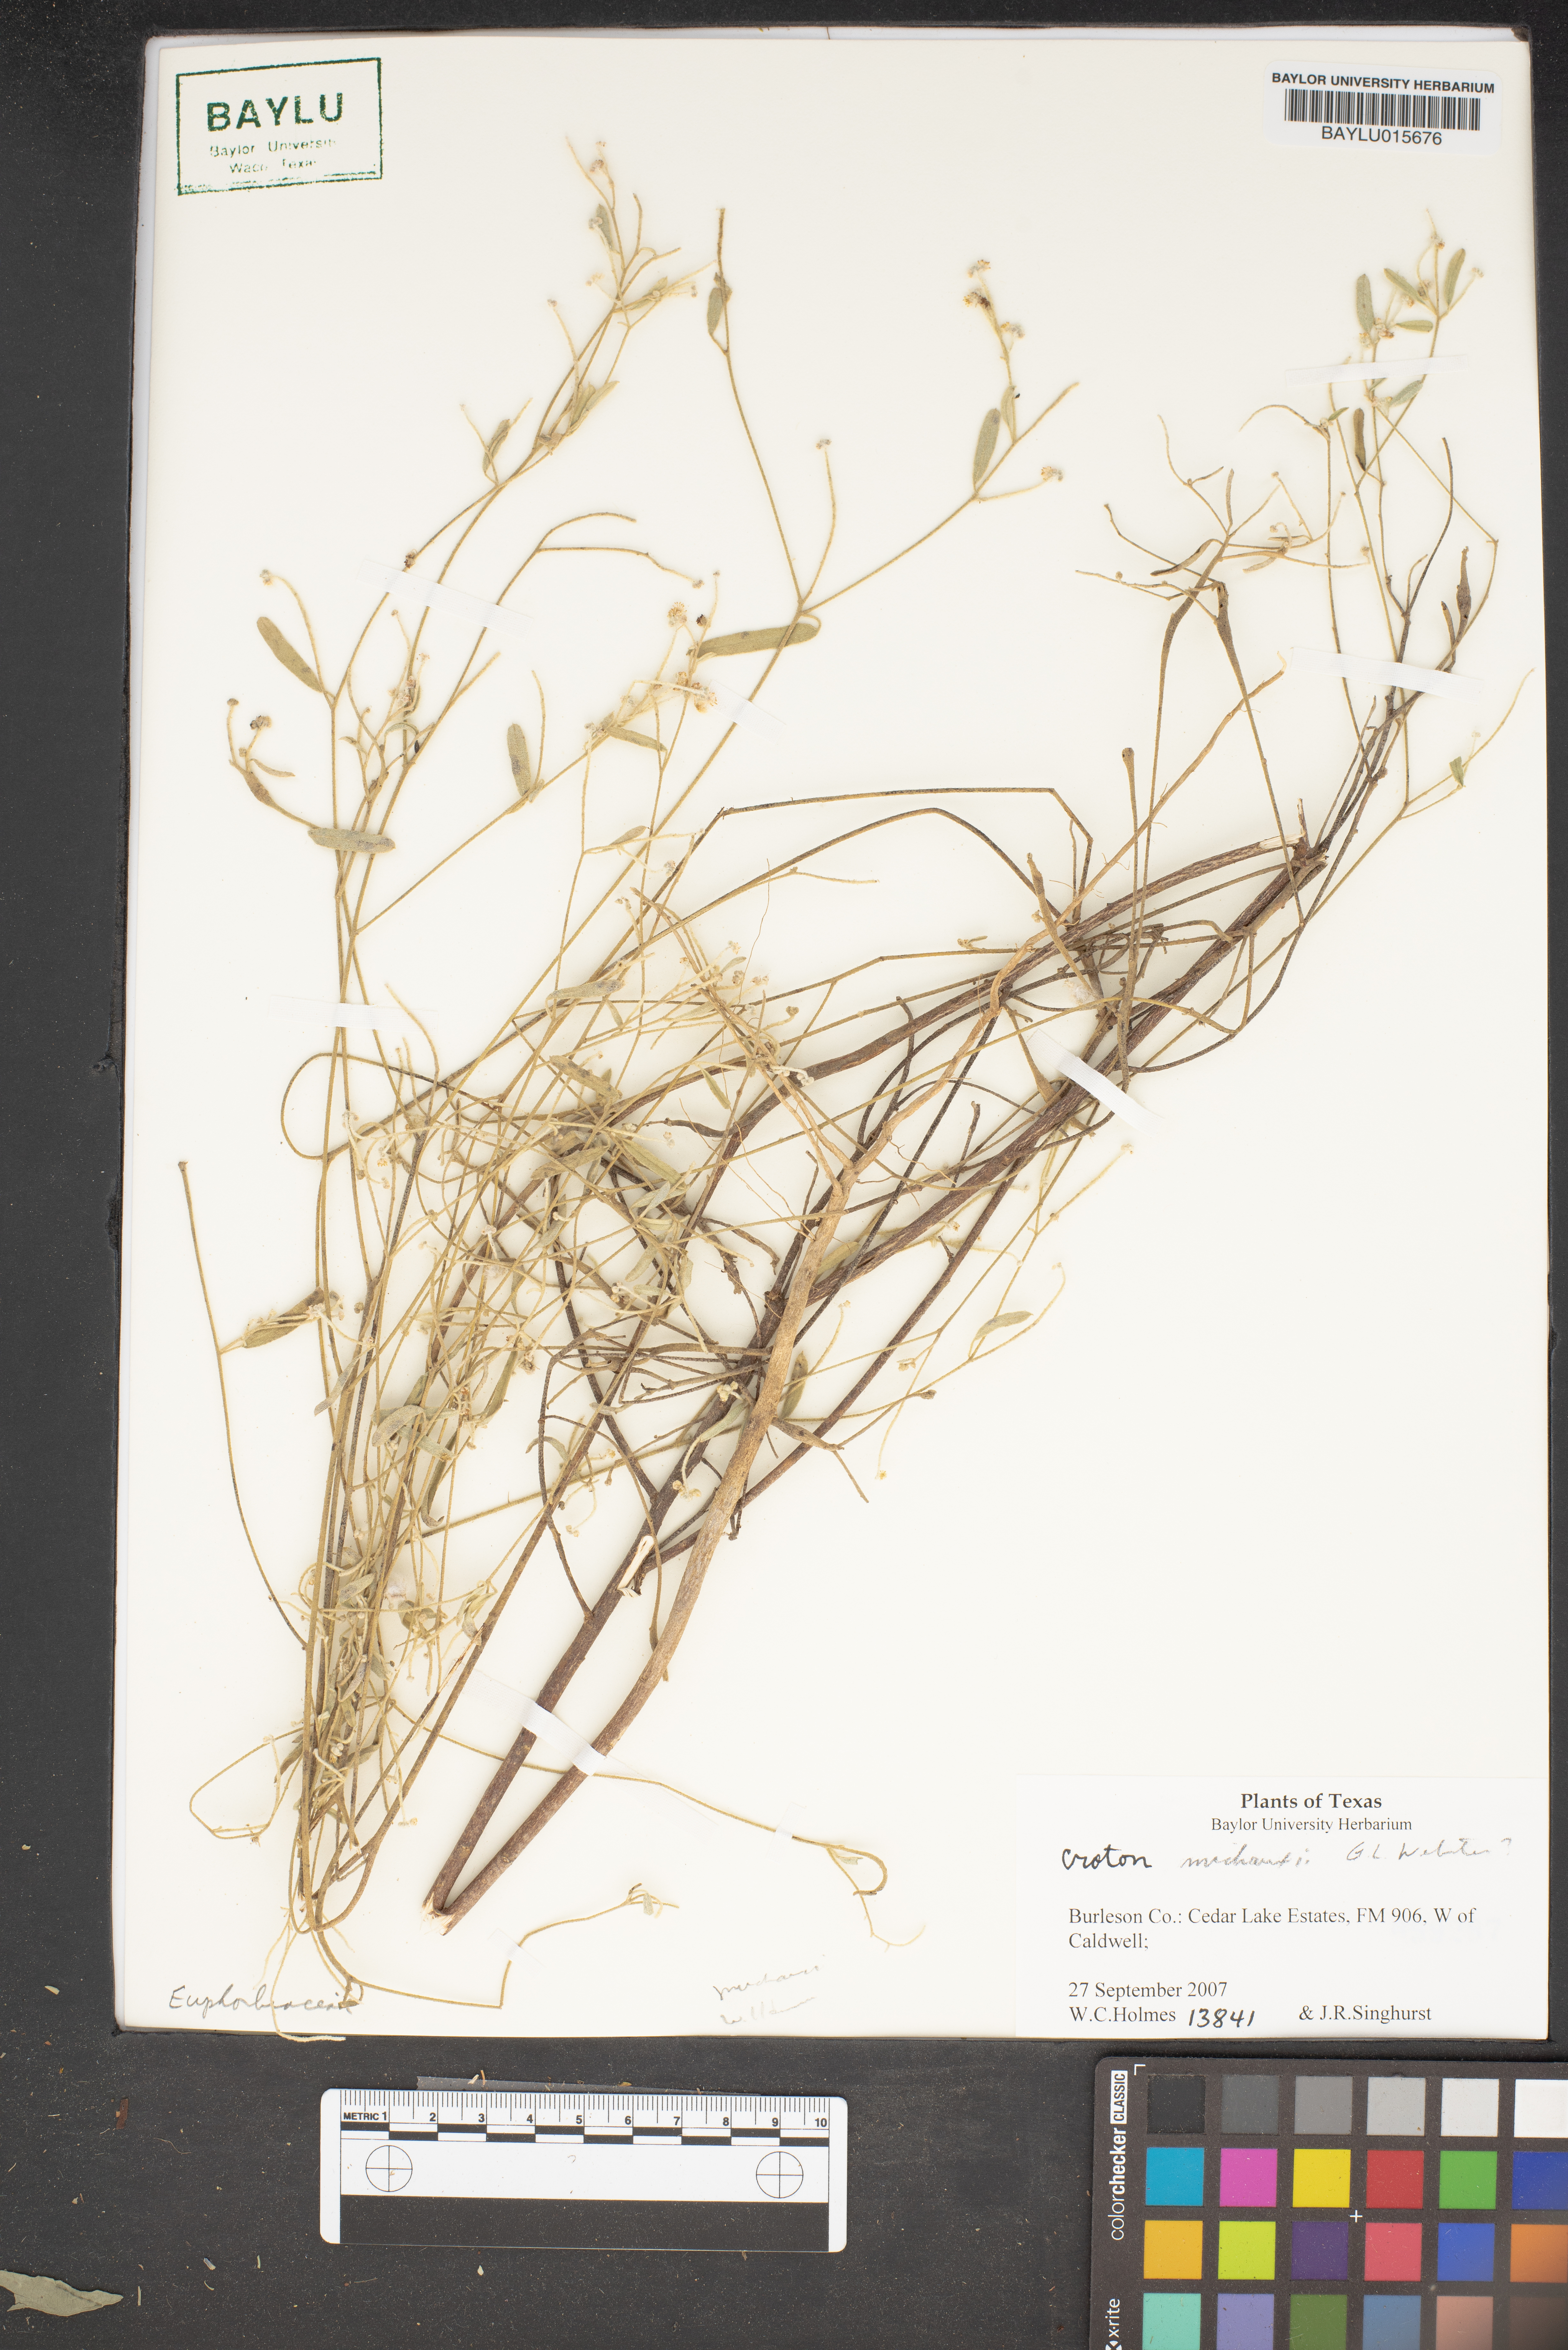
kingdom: Plantae
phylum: Tracheophyta
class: Magnoliopsida
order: Malpighiales
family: Euphorbiaceae
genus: Croton
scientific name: Croton michauxii
